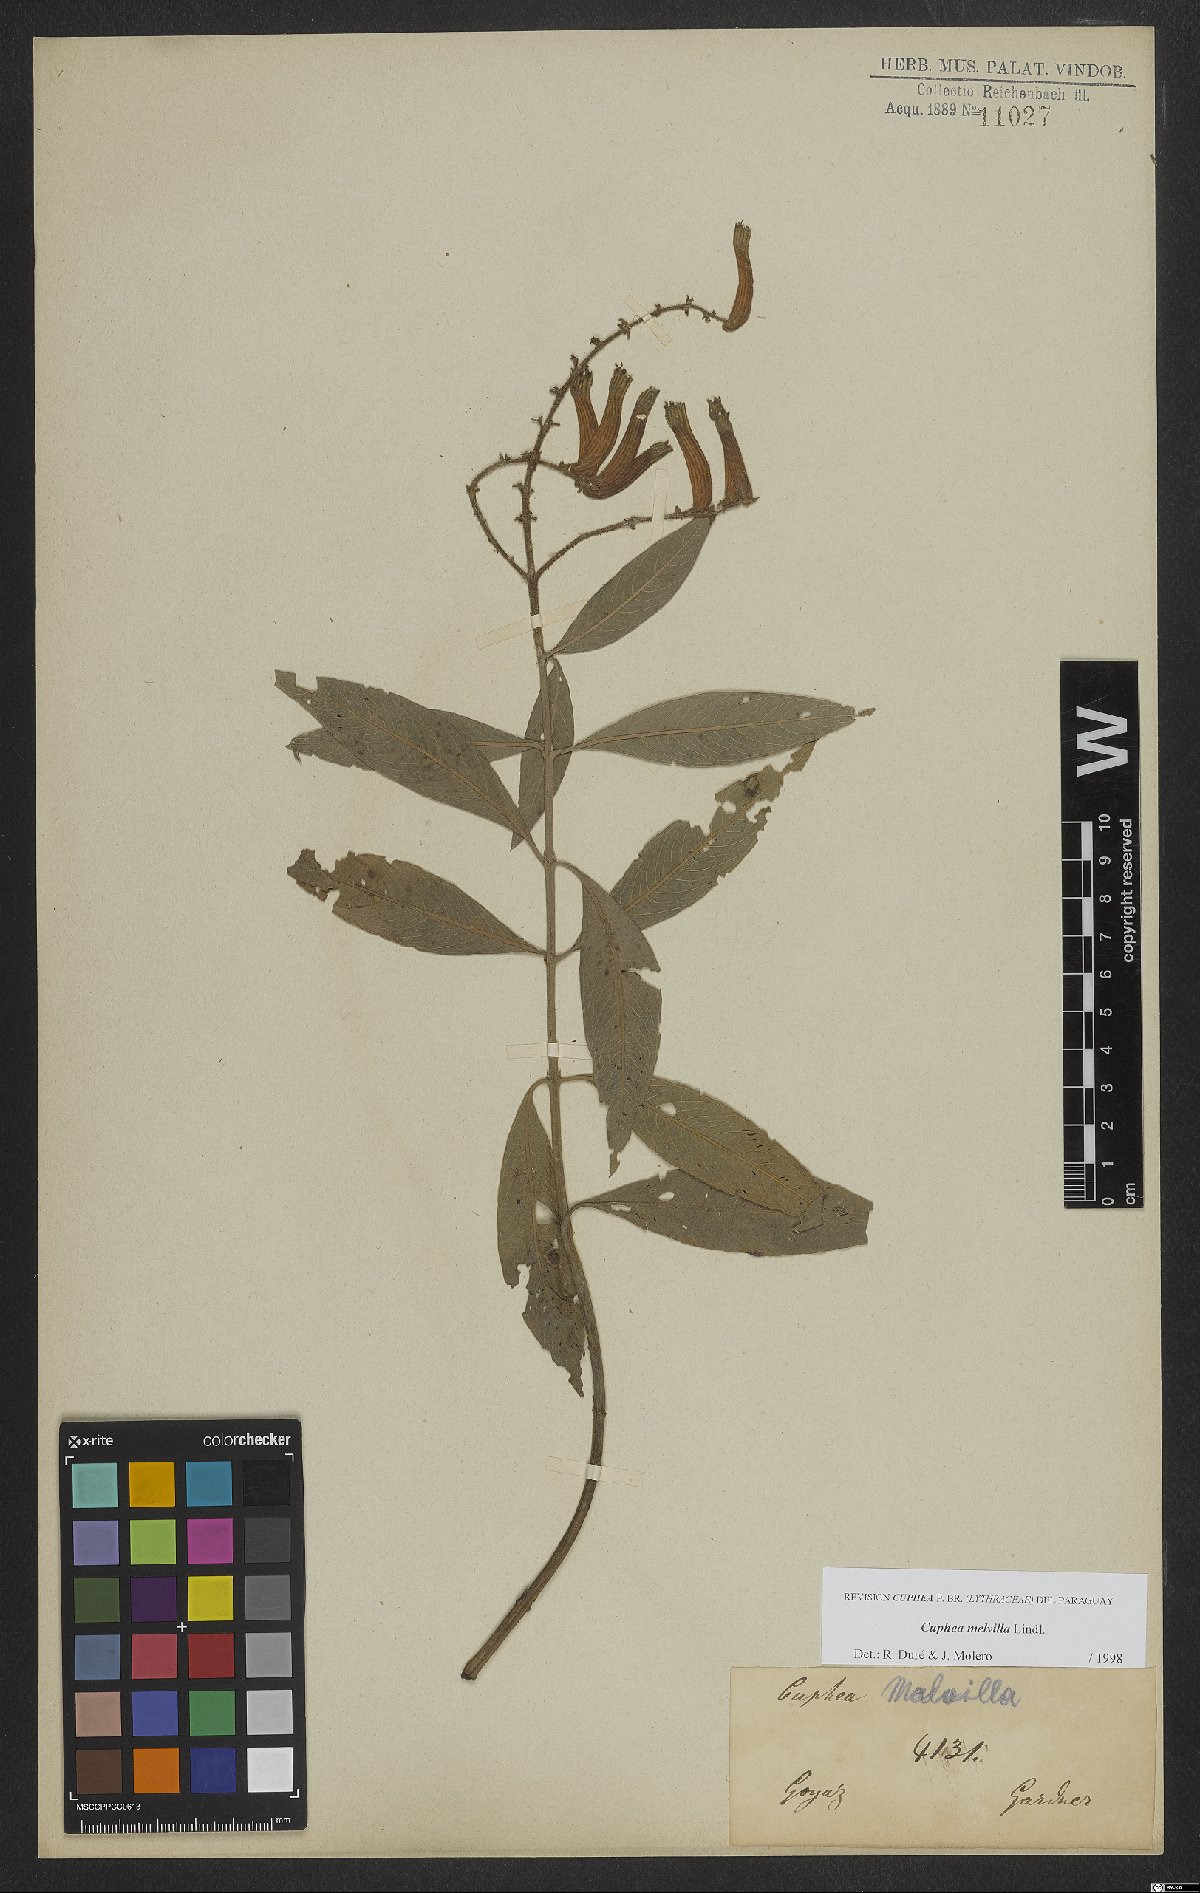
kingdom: Plantae
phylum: Tracheophyta
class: Magnoliopsida
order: Myrtales
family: Lythraceae
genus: Cuphea
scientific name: Cuphea melvilla
